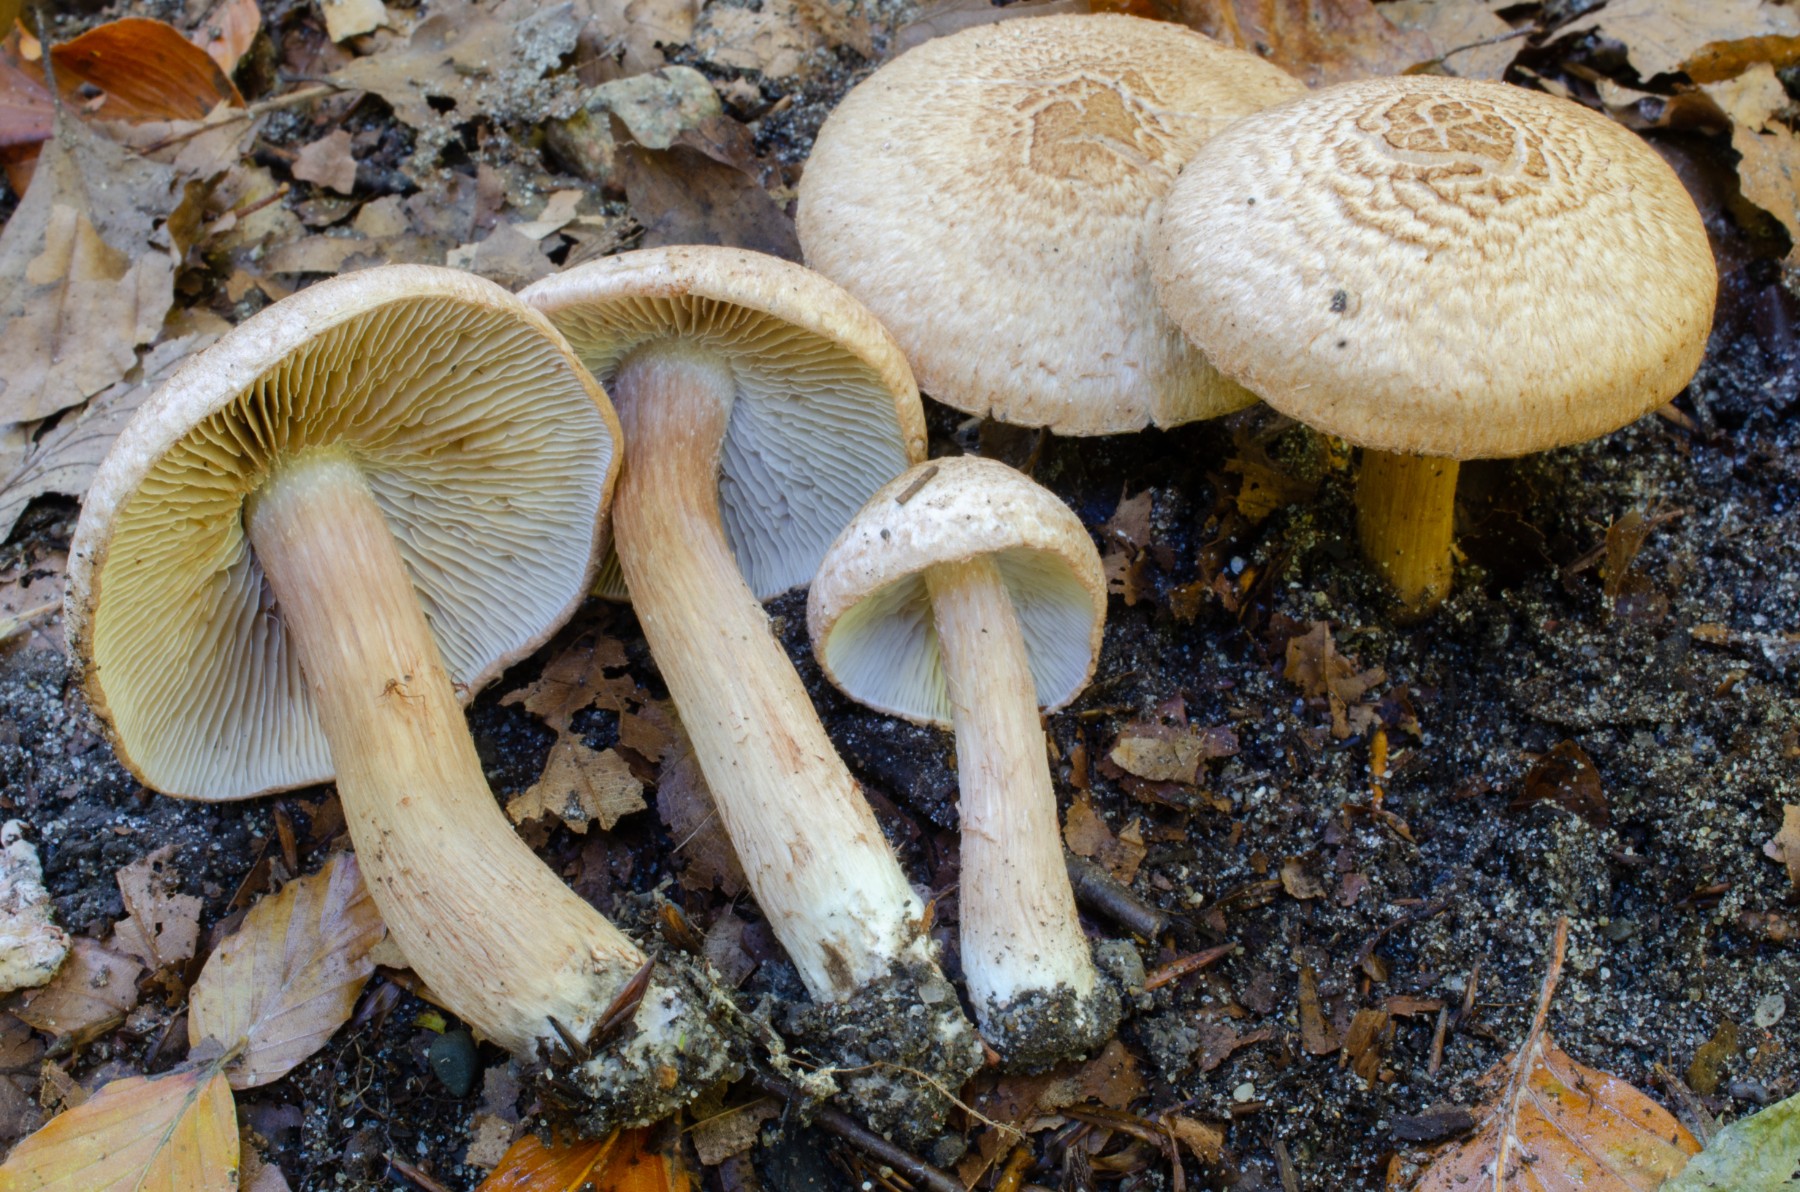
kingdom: Fungi
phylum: Basidiomycota
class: Agaricomycetes
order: Agaricales
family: Inocybaceae
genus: Inosperma
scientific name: Inosperma bongardii
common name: Bongards trævlhat
